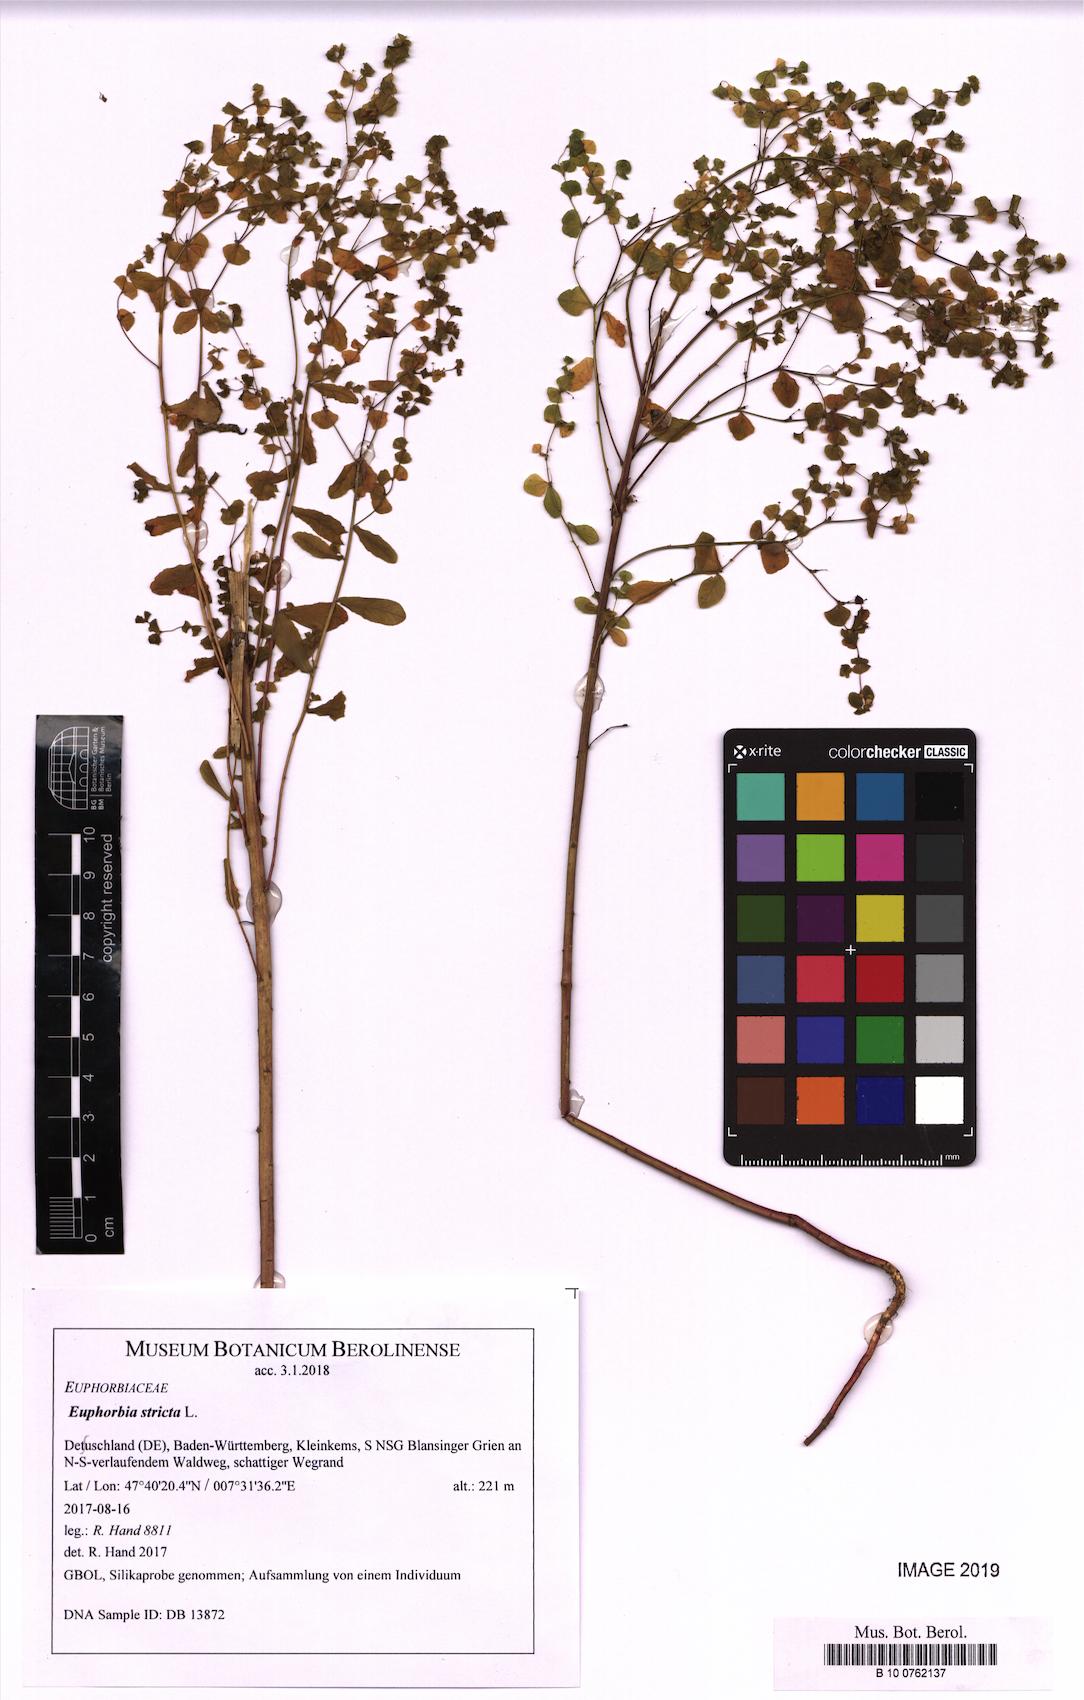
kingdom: Plantae
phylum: Tracheophyta
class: Magnoliopsida
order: Malpighiales
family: Euphorbiaceae
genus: Euphorbia
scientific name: Euphorbia stricta
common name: Upright spurge
